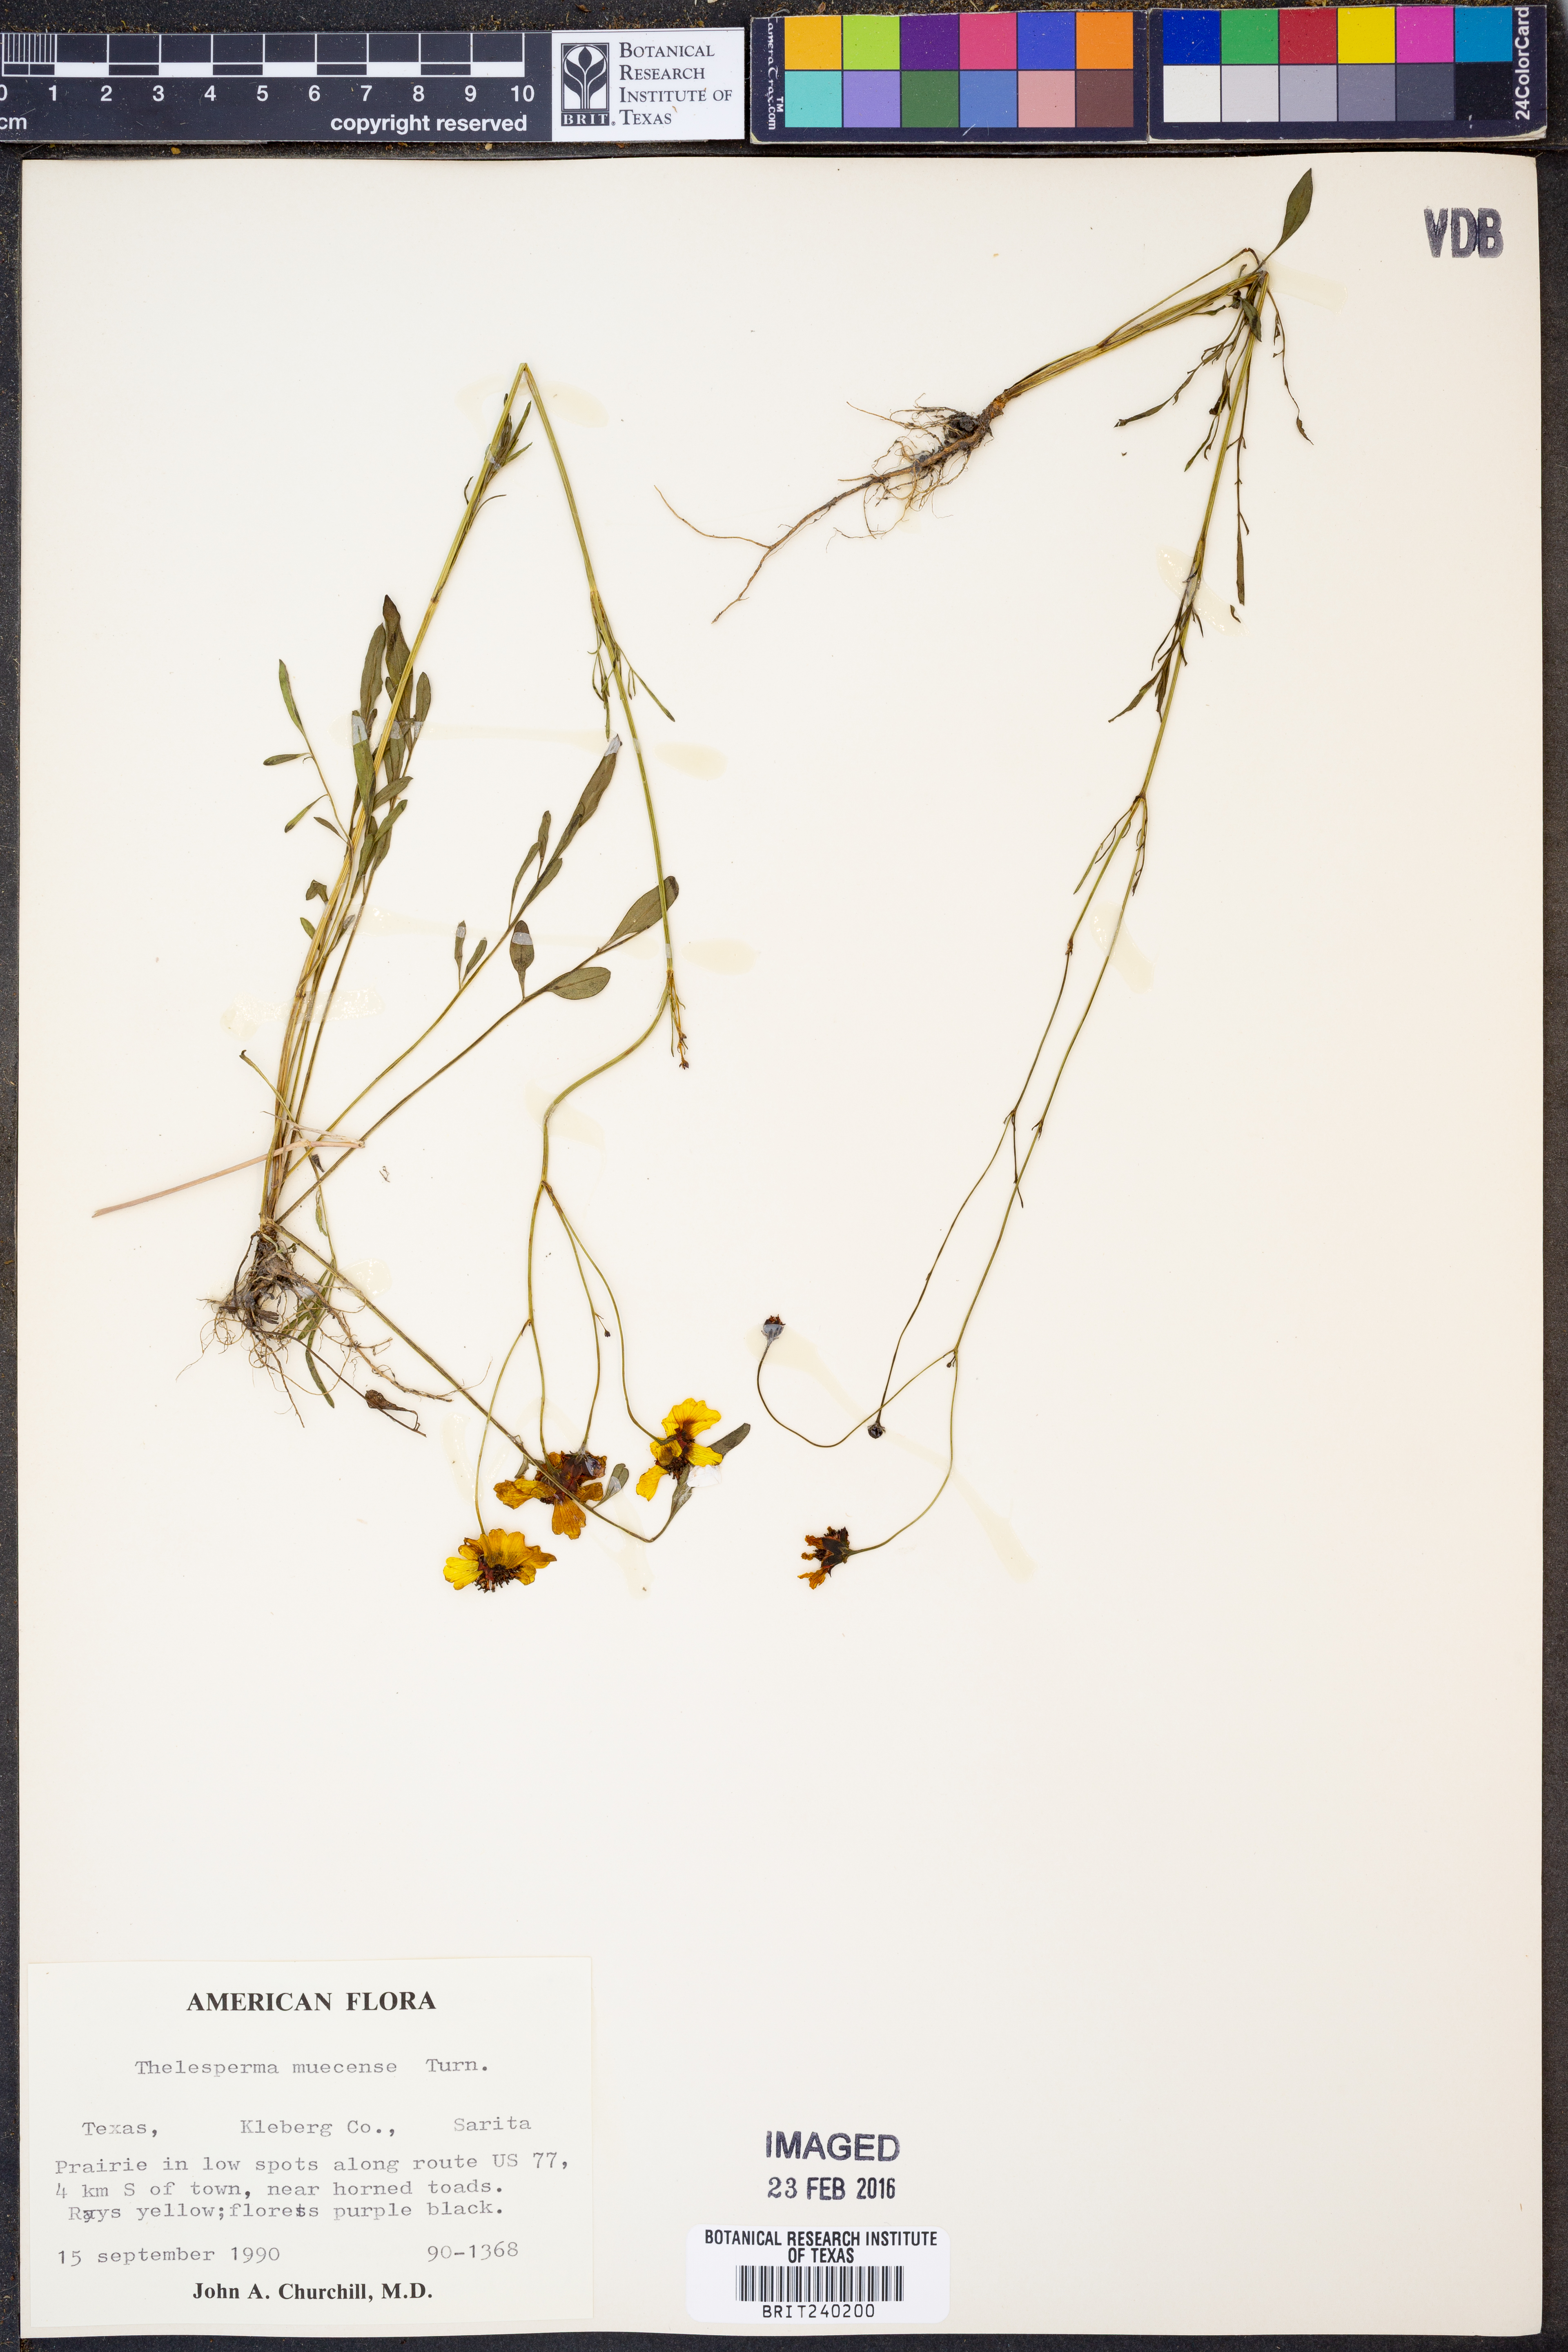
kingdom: Plantae
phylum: Tracheophyta
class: Magnoliopsida
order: Asterales
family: Asteraceae
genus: Thelesperma
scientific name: Thelesperma nuecense
